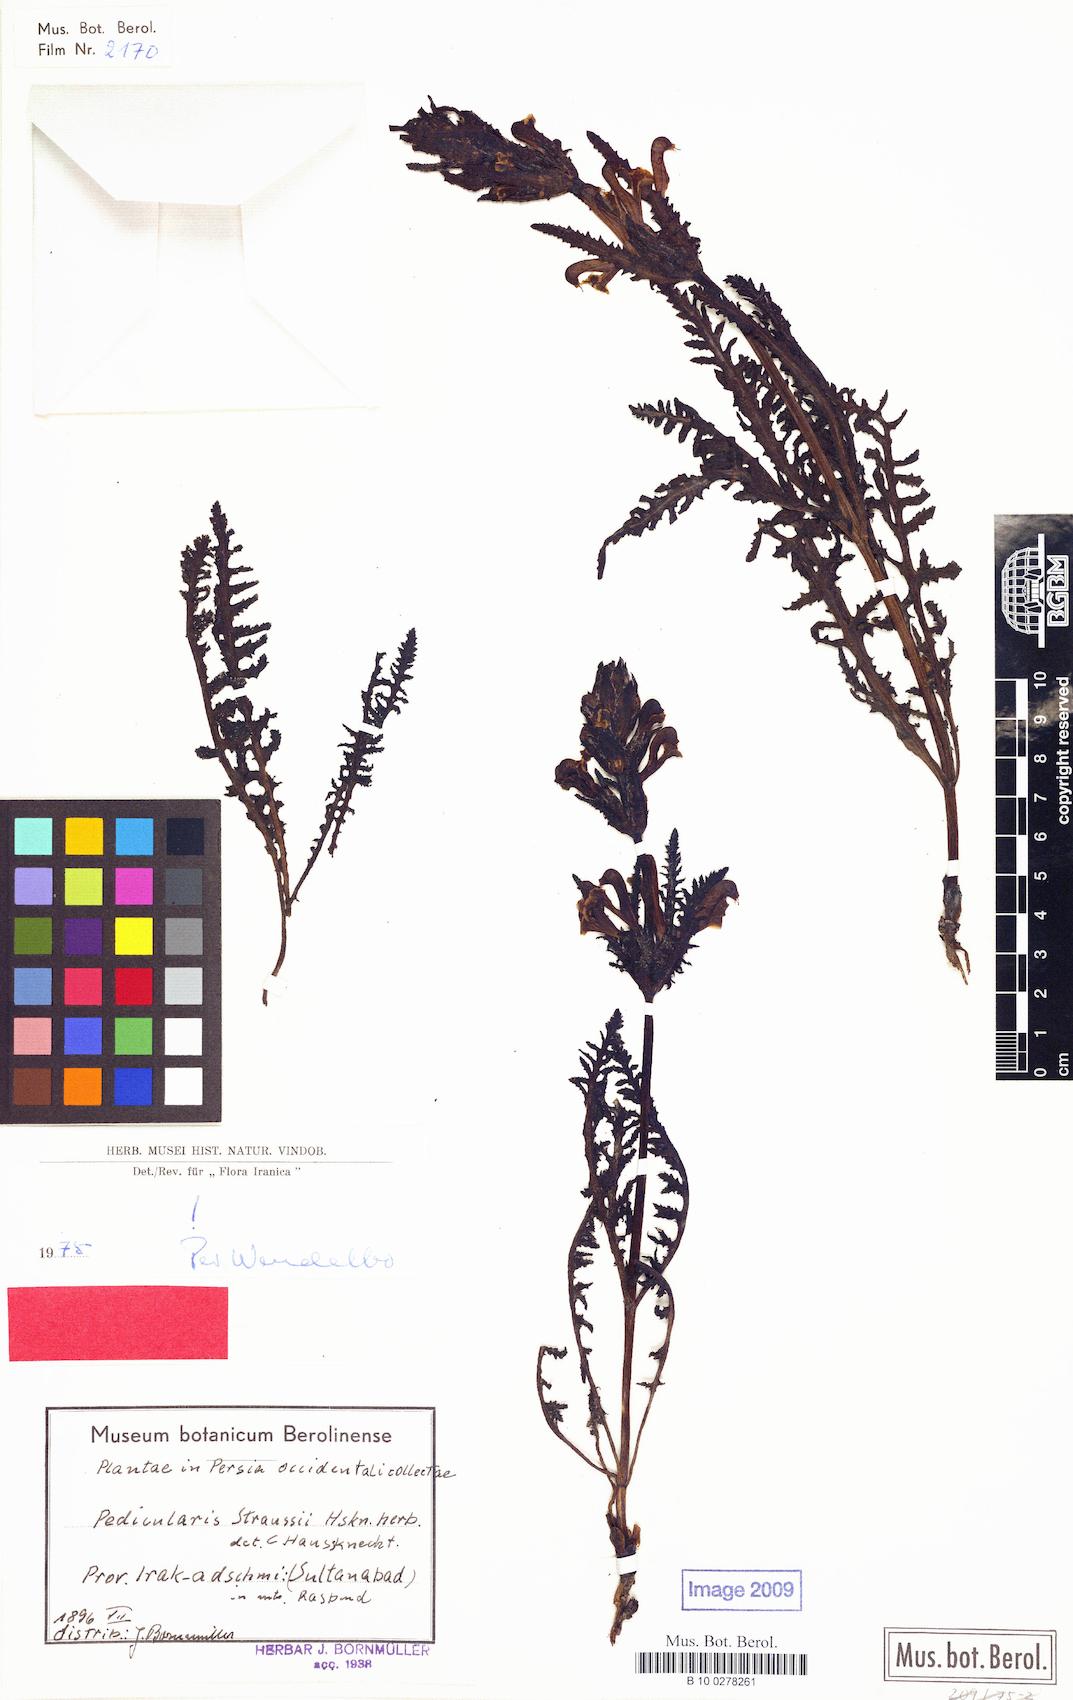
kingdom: Plantae
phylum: Tracheophyta
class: Magnoliopsida
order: Lamiales
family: Orobanchaceae
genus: Pedicularis
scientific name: Pedicularis straussii
